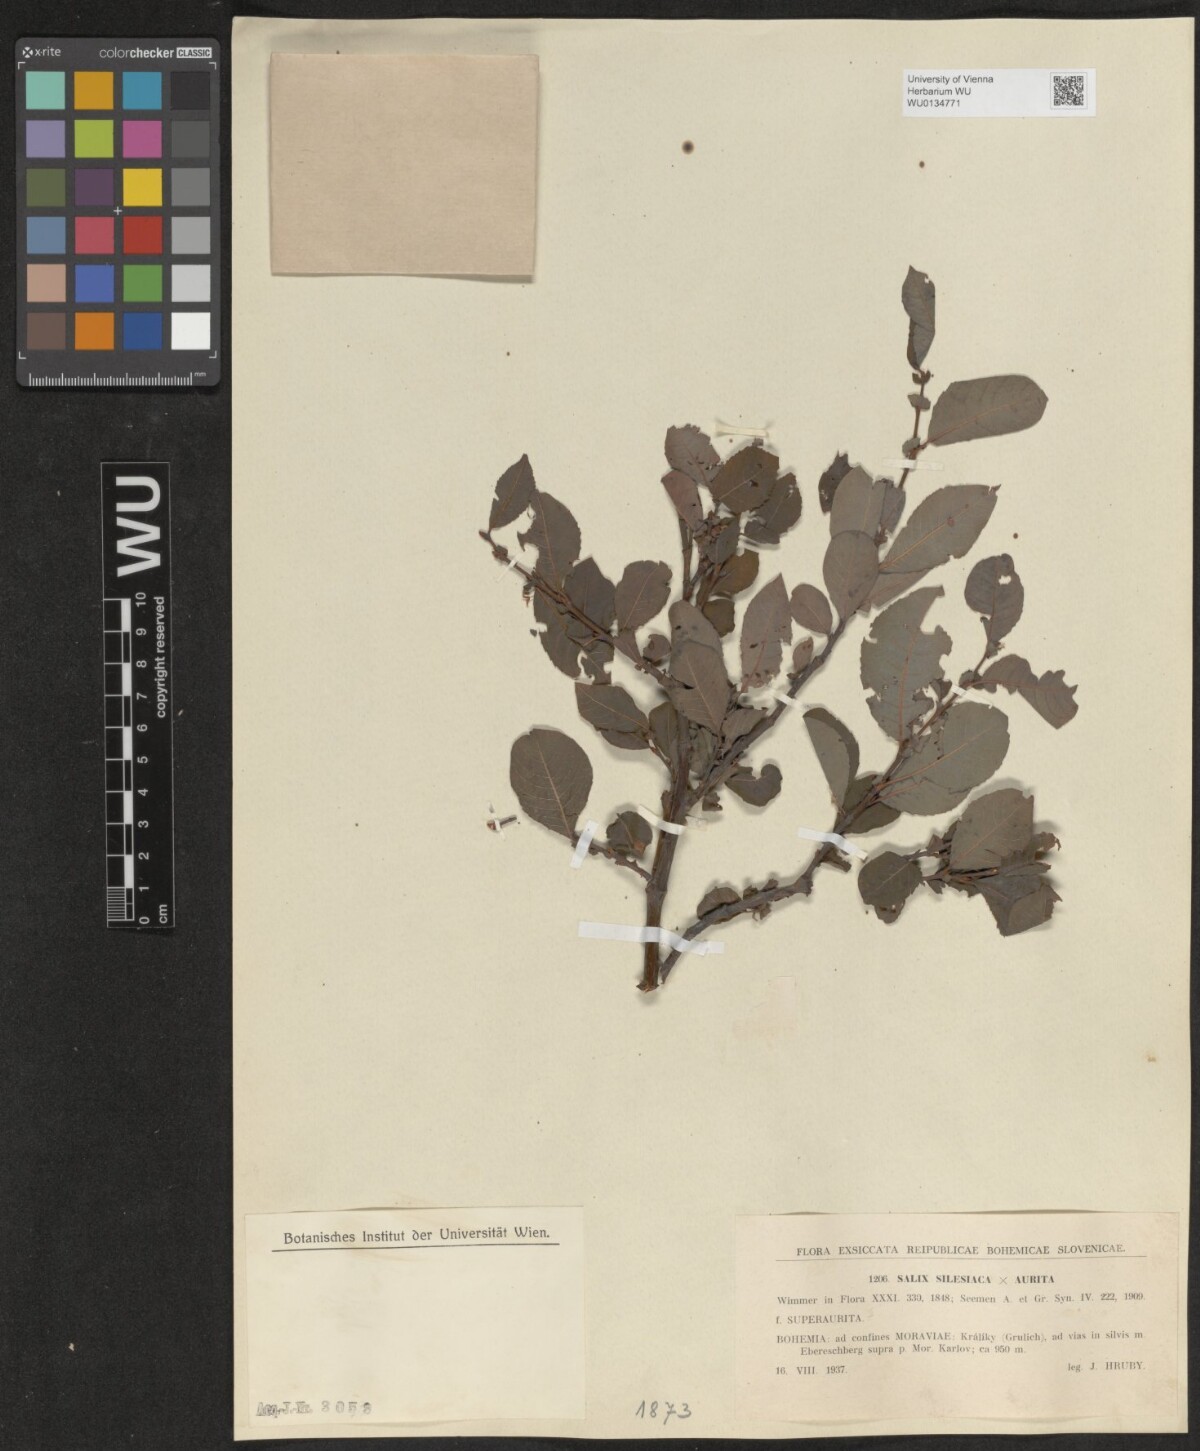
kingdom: Plantae
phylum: Tracheophyta
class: Magnoliopsida
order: Malpighiales
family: Salicaceae
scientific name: Salicaceae
